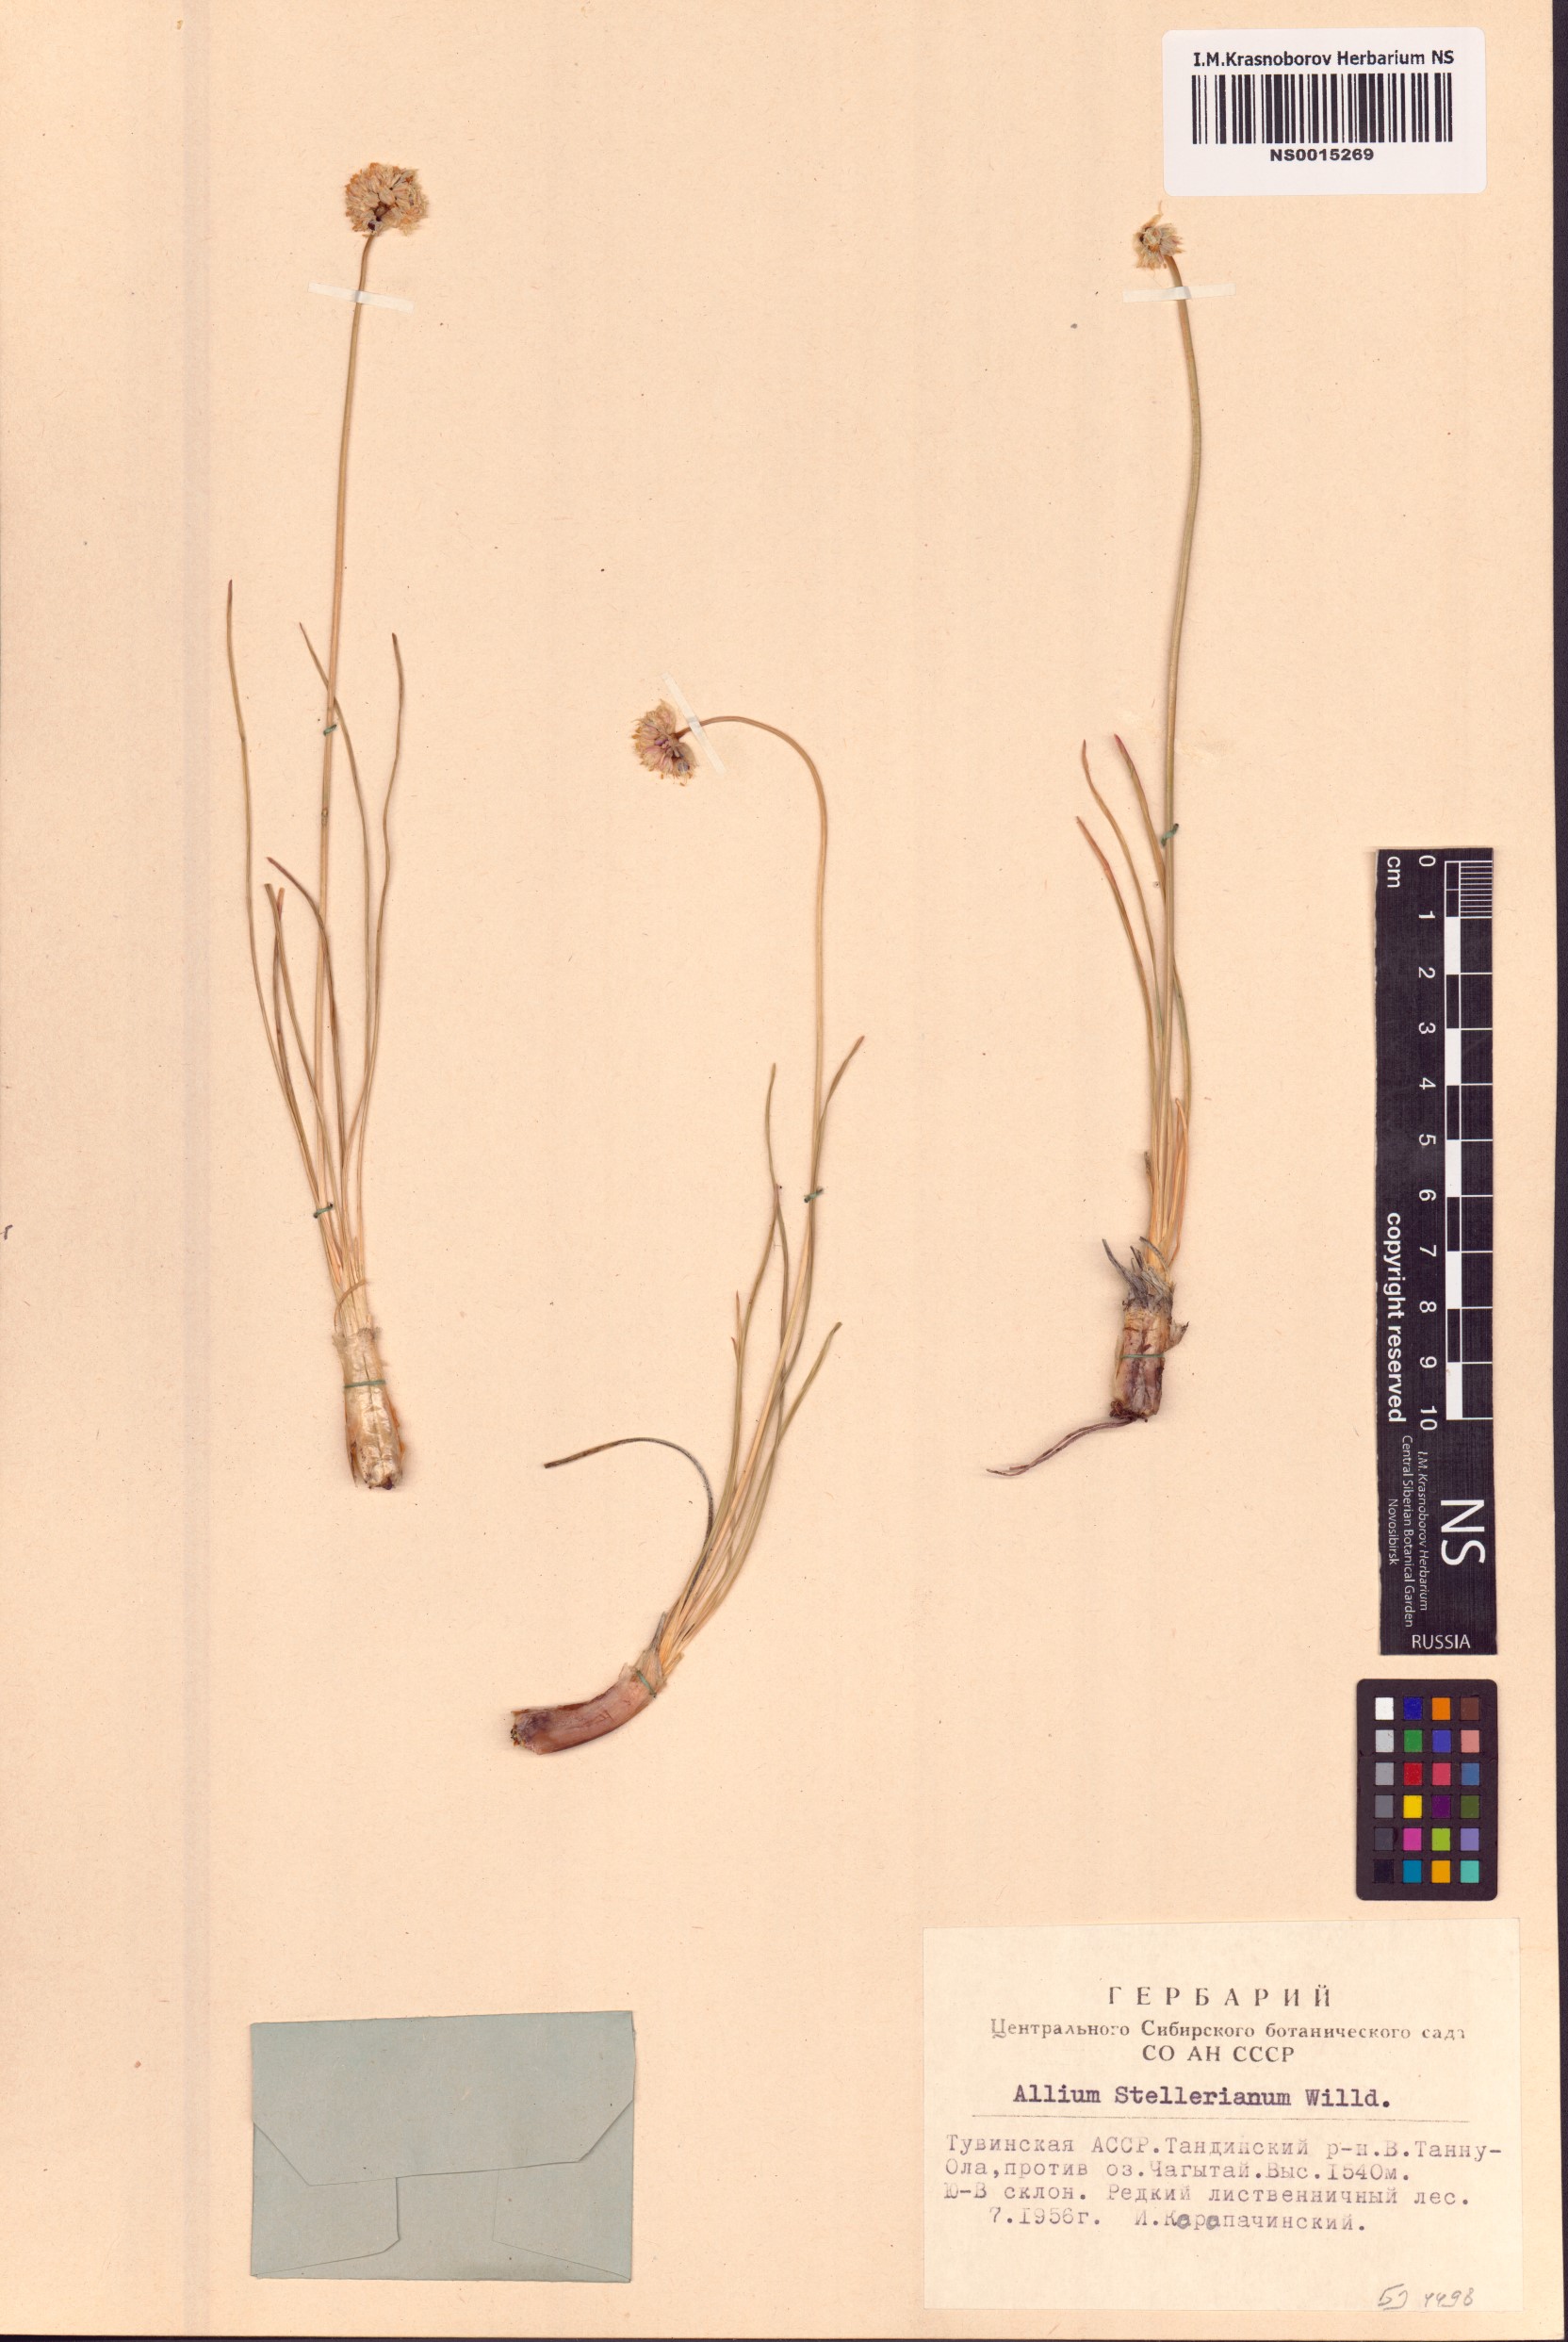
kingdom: Plantae
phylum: Tracheophyta
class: Liliopsida
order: Asparagales
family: Amaryllidaceae
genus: Allium
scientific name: Allium stellerianum
